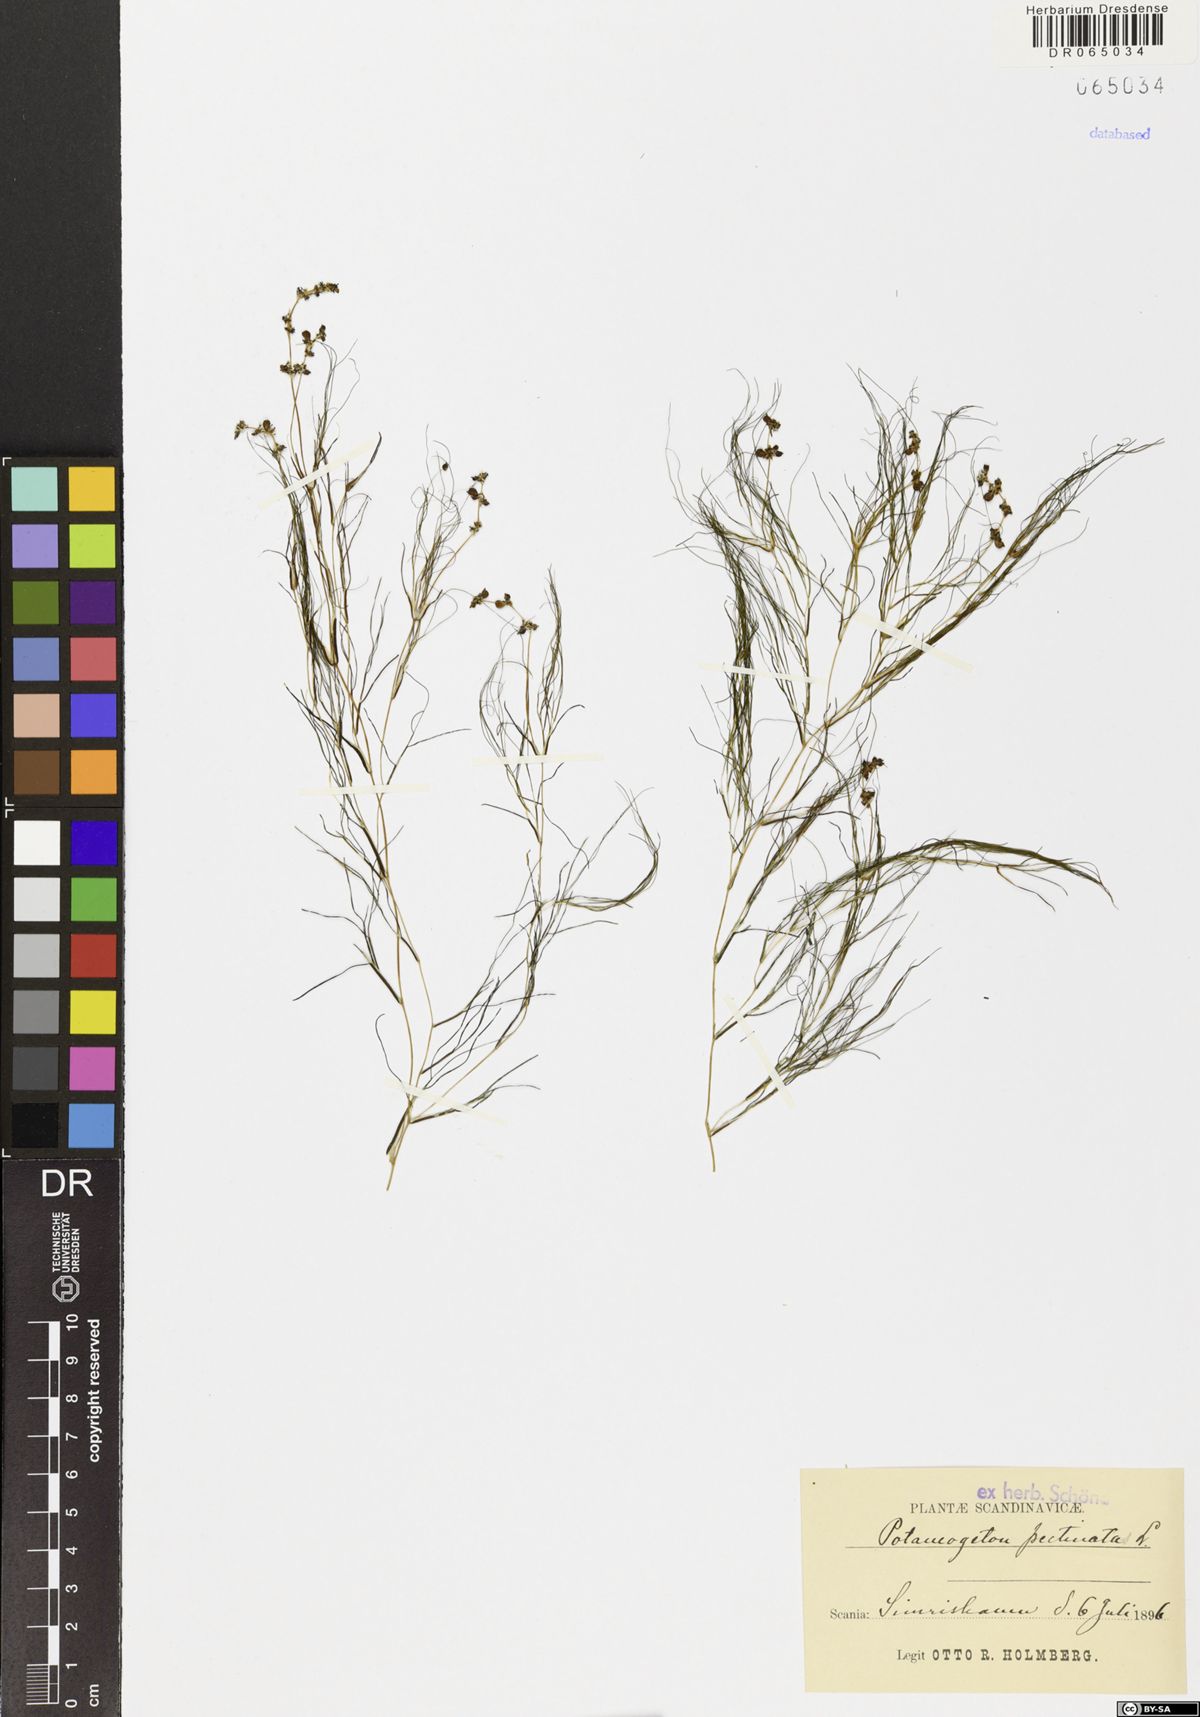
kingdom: Plantae
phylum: Tracheophyta
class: Liliopsida
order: Alismatales
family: Potamogetonaceae
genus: Stuckenia
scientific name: Stuckenia pectinata
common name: Sago pondweed
